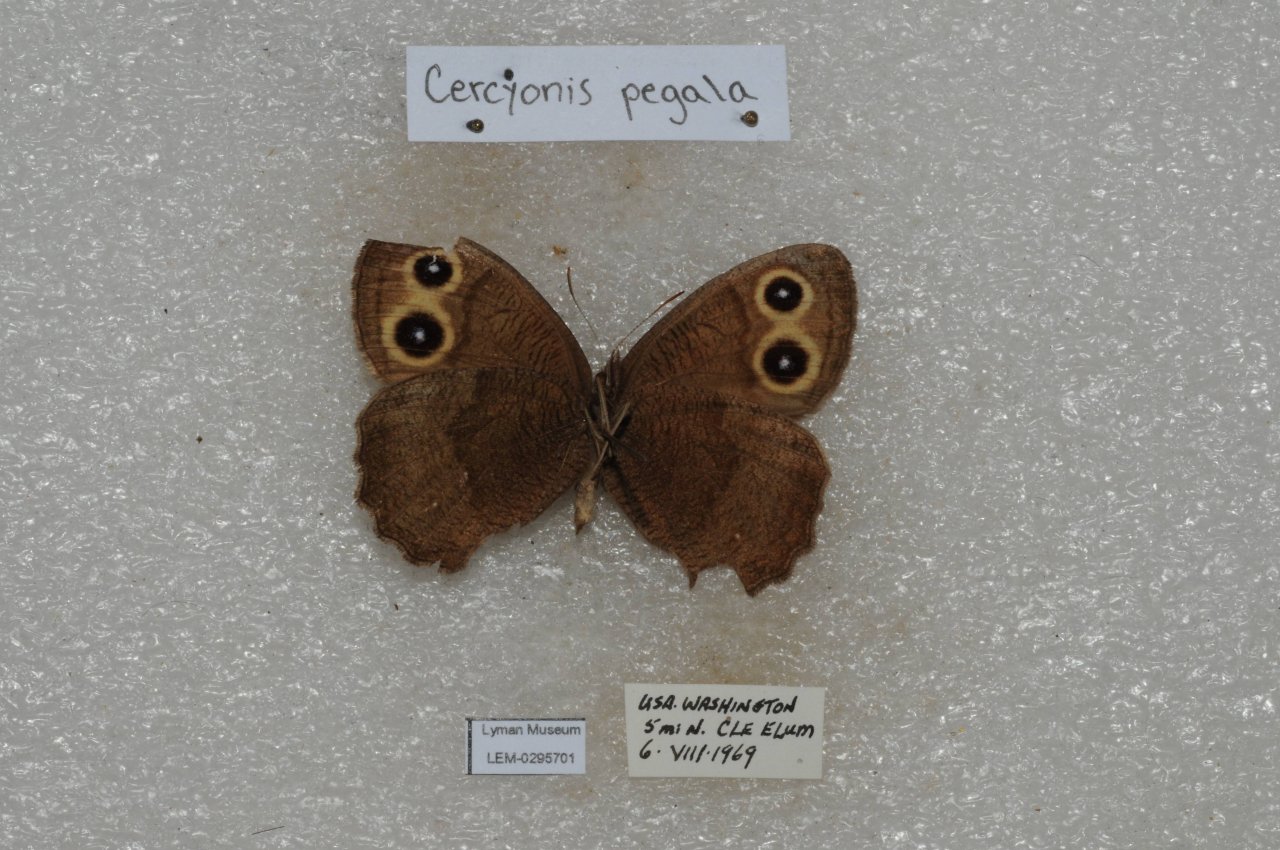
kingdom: Animalia
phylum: Arthropoda
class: Insecta
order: Lepidoptera
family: Nymphalidae
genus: Cercyonis
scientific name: Cercyonis pegala
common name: Common Wood-Nymph
